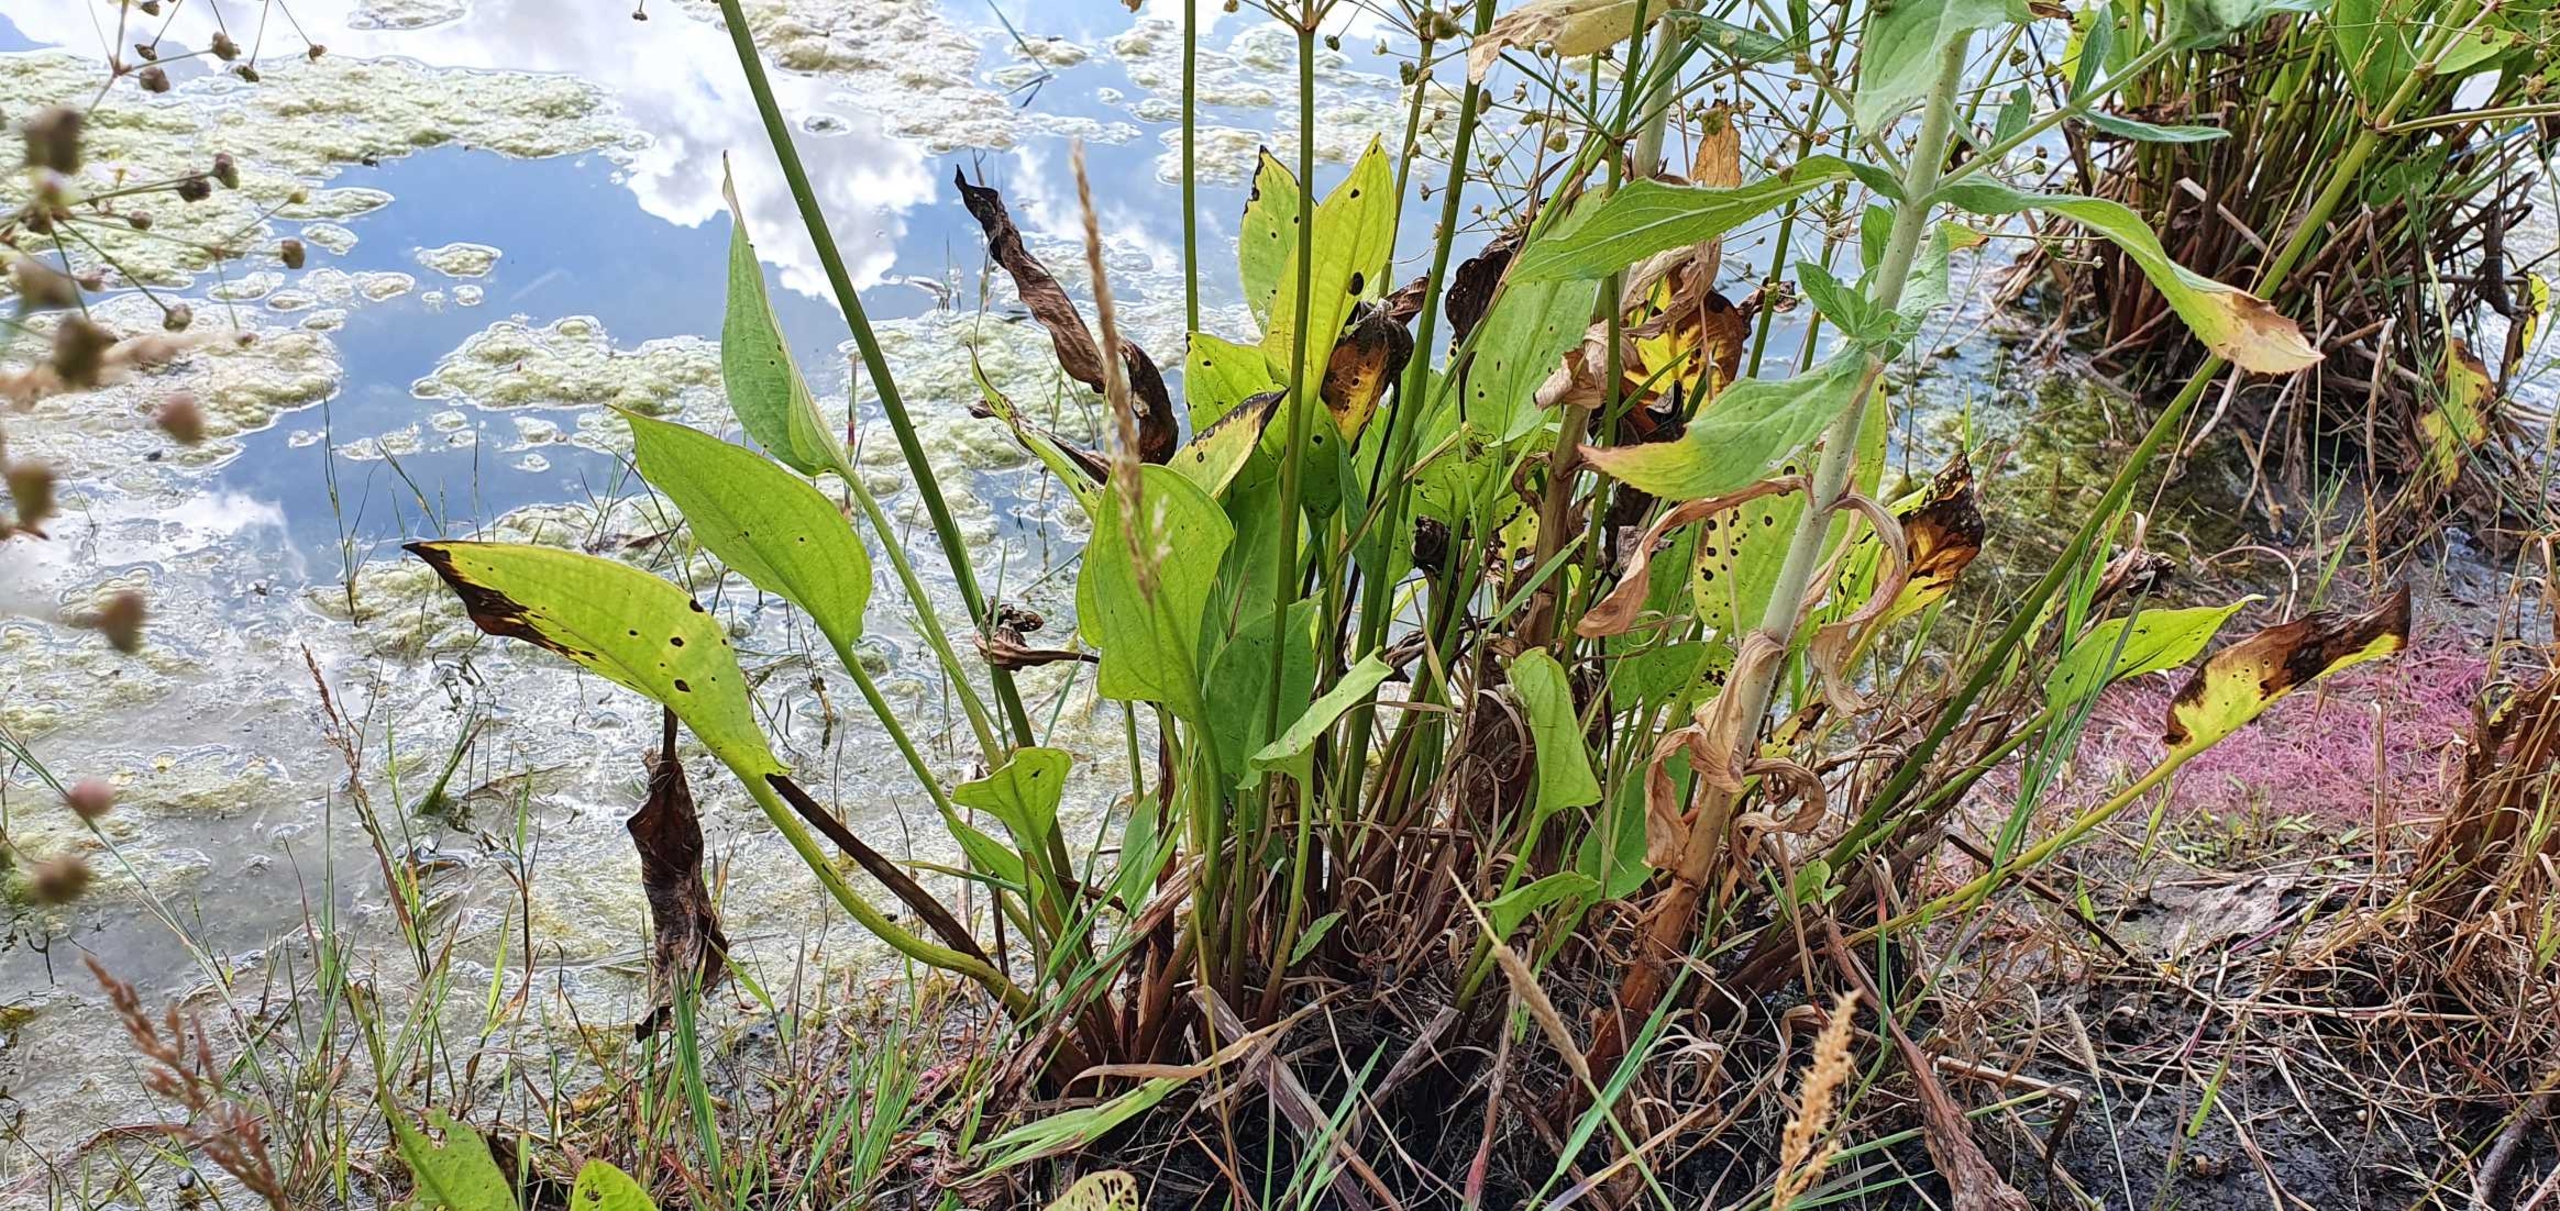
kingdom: Plantae
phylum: Tracheophyta
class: Liliopsida
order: Alismatales
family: Alismataceae
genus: Alisma
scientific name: Alisma plantago-aquatica
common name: Vejbred-skeblad
